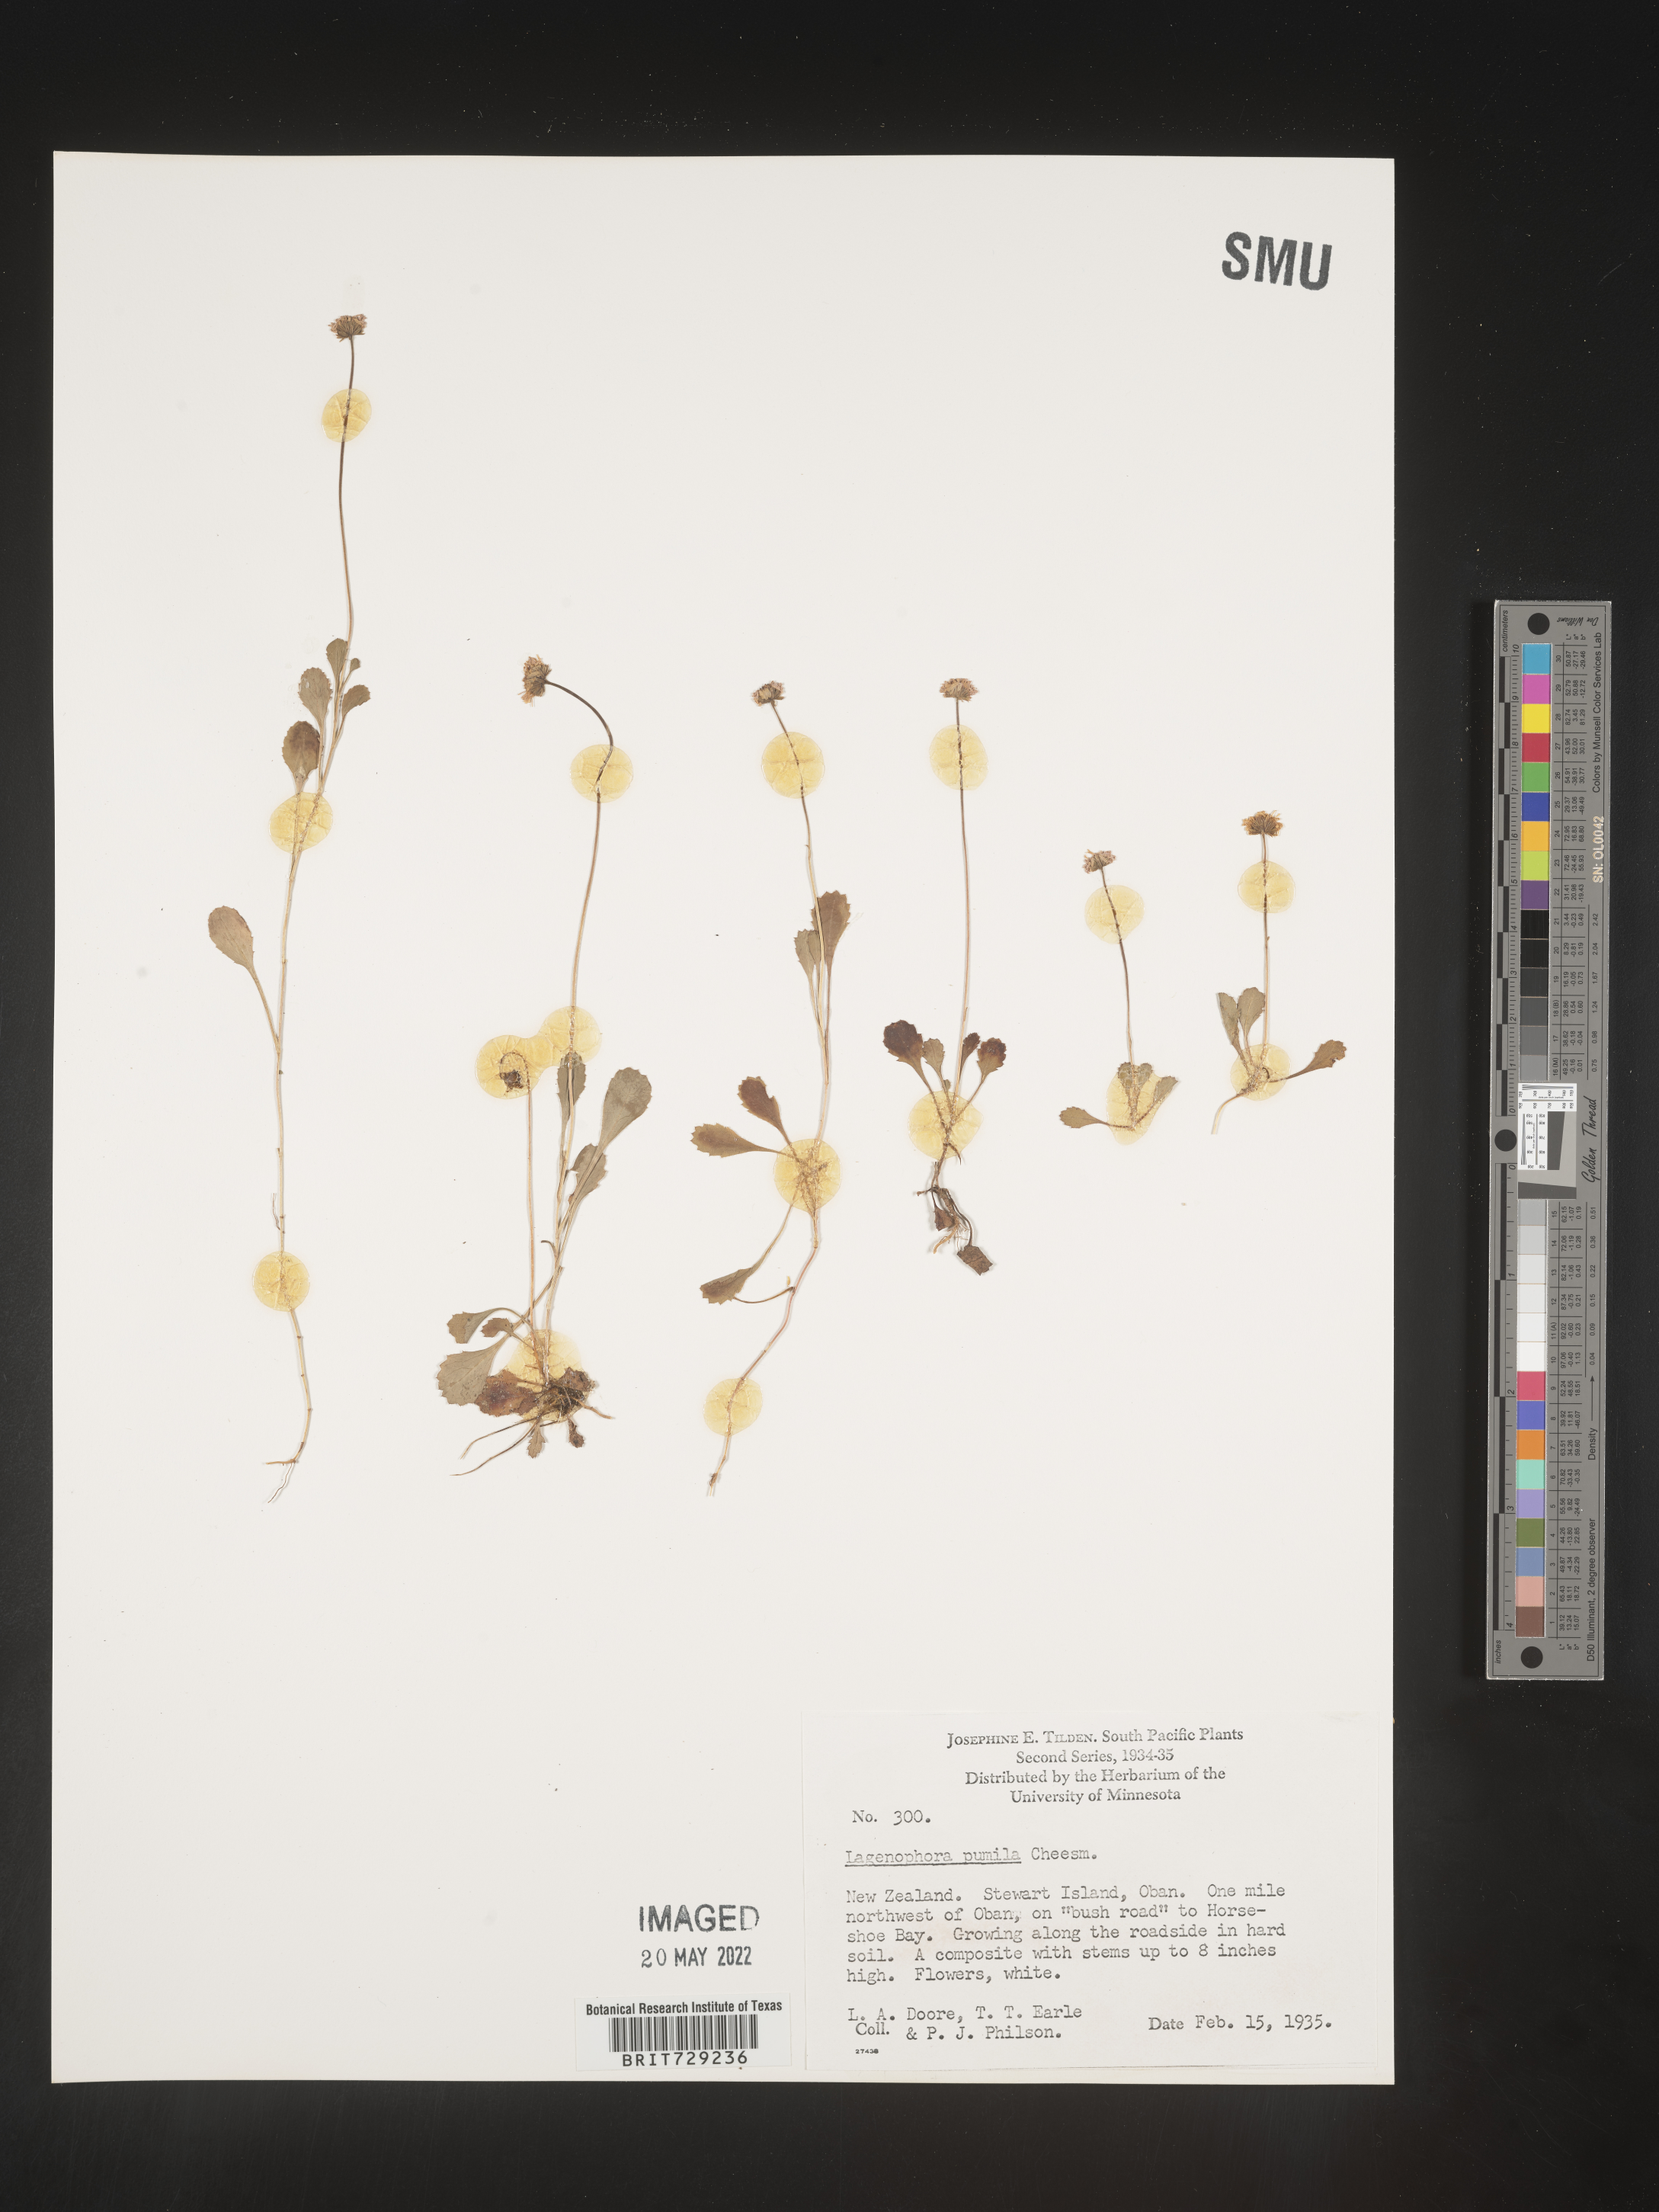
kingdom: Plantae
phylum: Tracheophyta
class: Magnoliopsida
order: Asterales
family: Asteraceae
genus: Lagenophora
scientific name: Lagenophora
